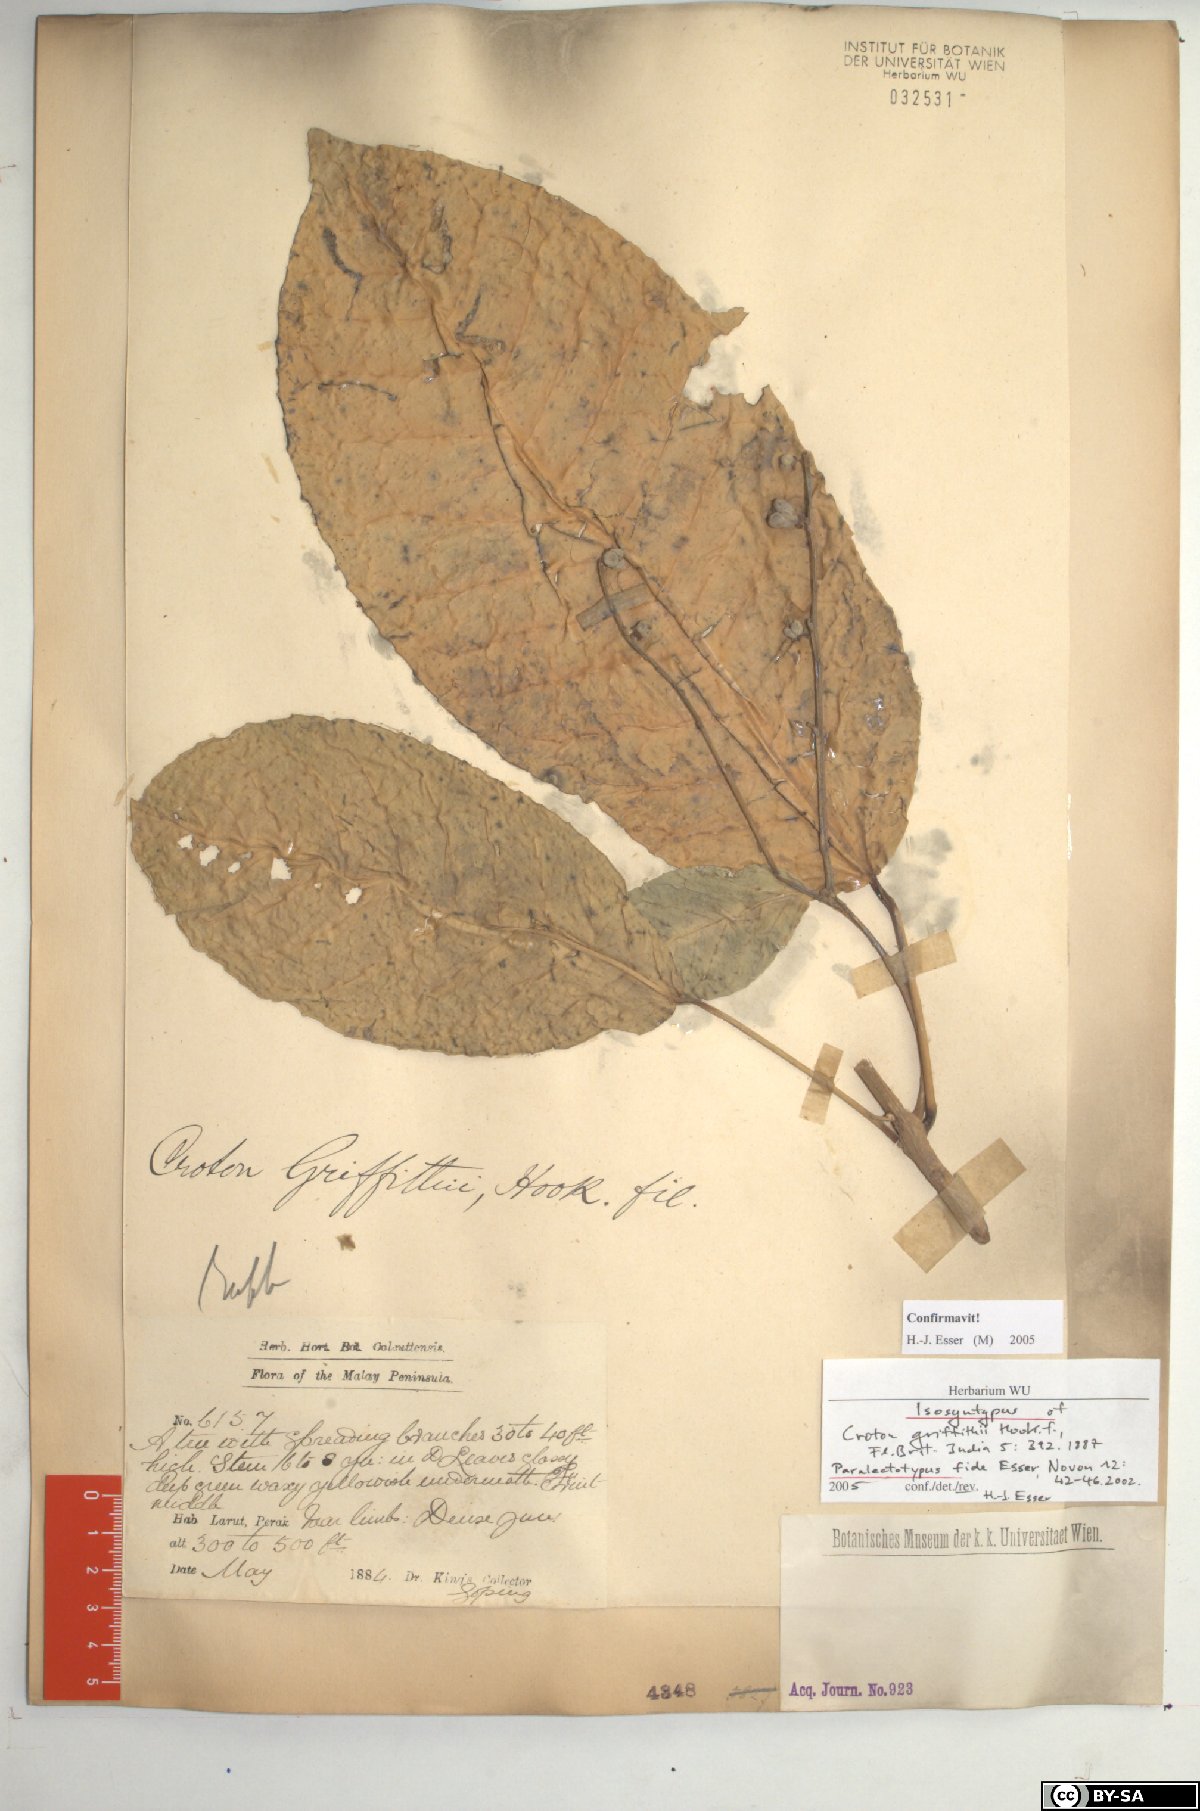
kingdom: Plantae
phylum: Tracheophyta
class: Magnoliopsida
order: Malpighiales
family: Euphorbiaceae
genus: Croton
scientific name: Croton griffithii
